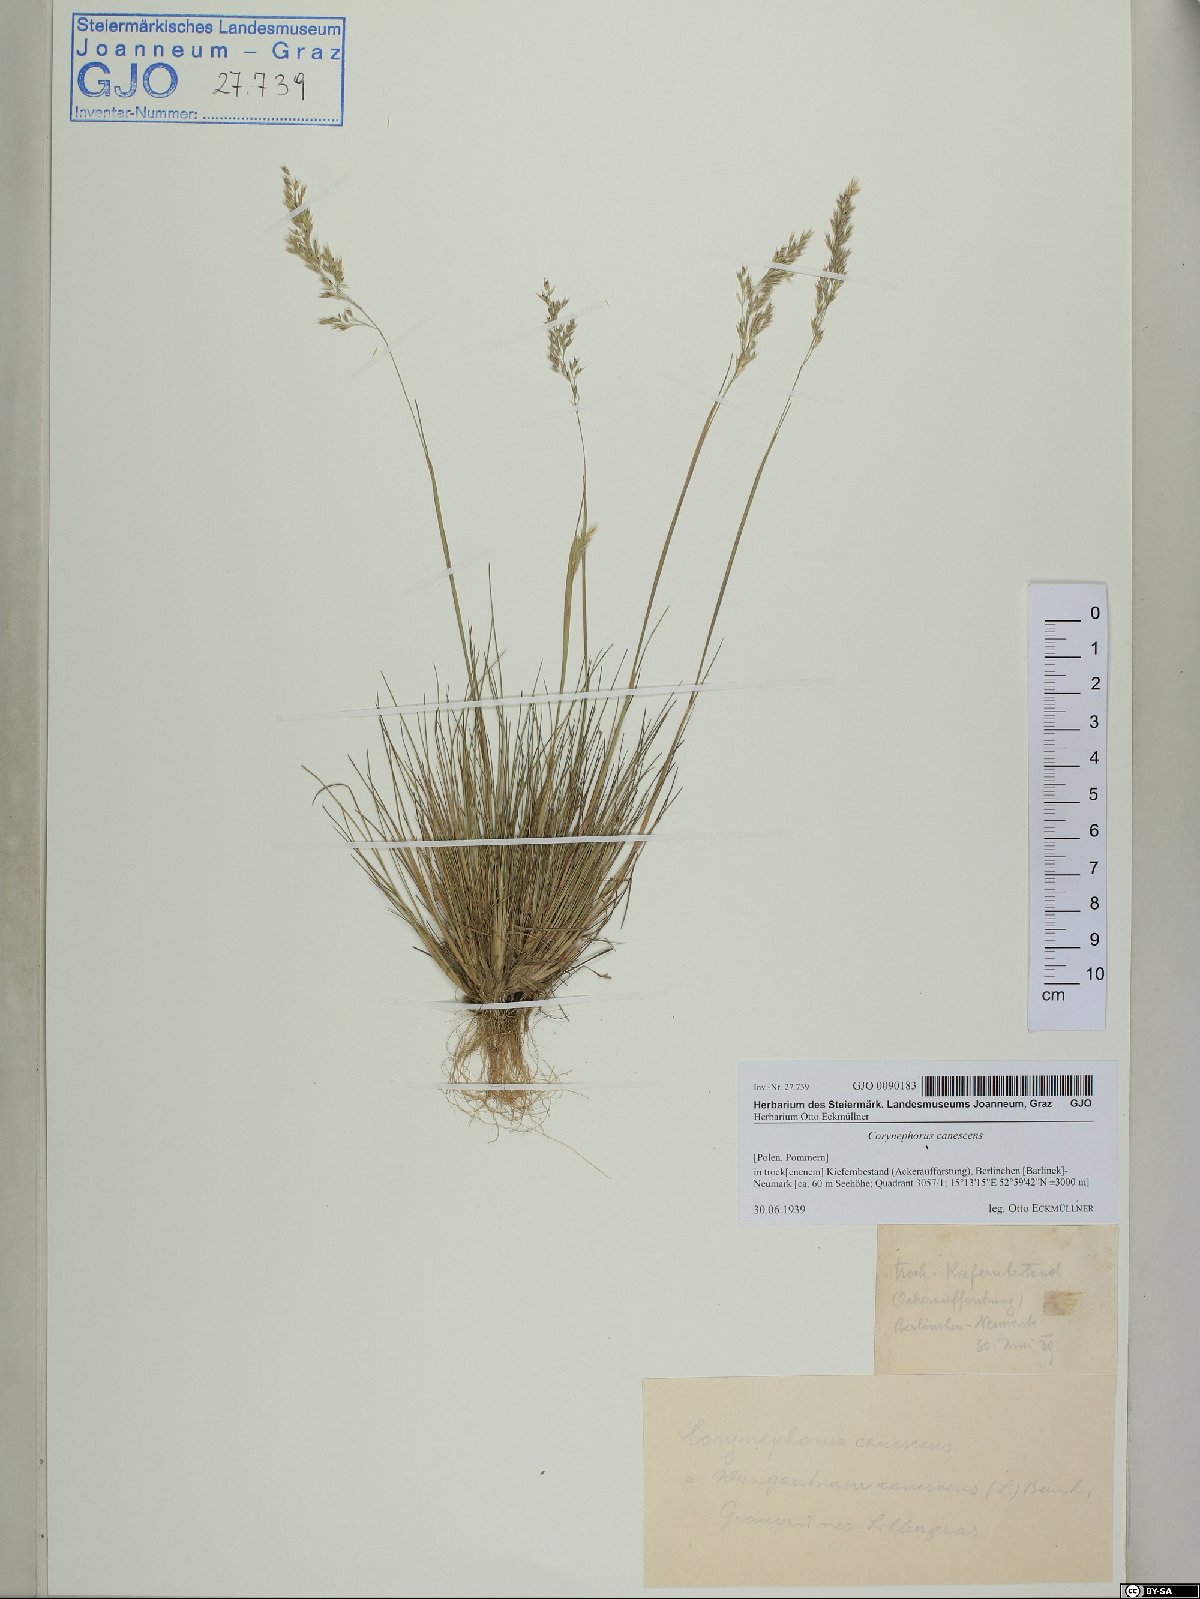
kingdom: Plantae
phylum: Tracheophyta
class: Liliopsida
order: Poales
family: Poaceae
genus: Corynephorus
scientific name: Corynephorus canescens
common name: Grey hair-grass
